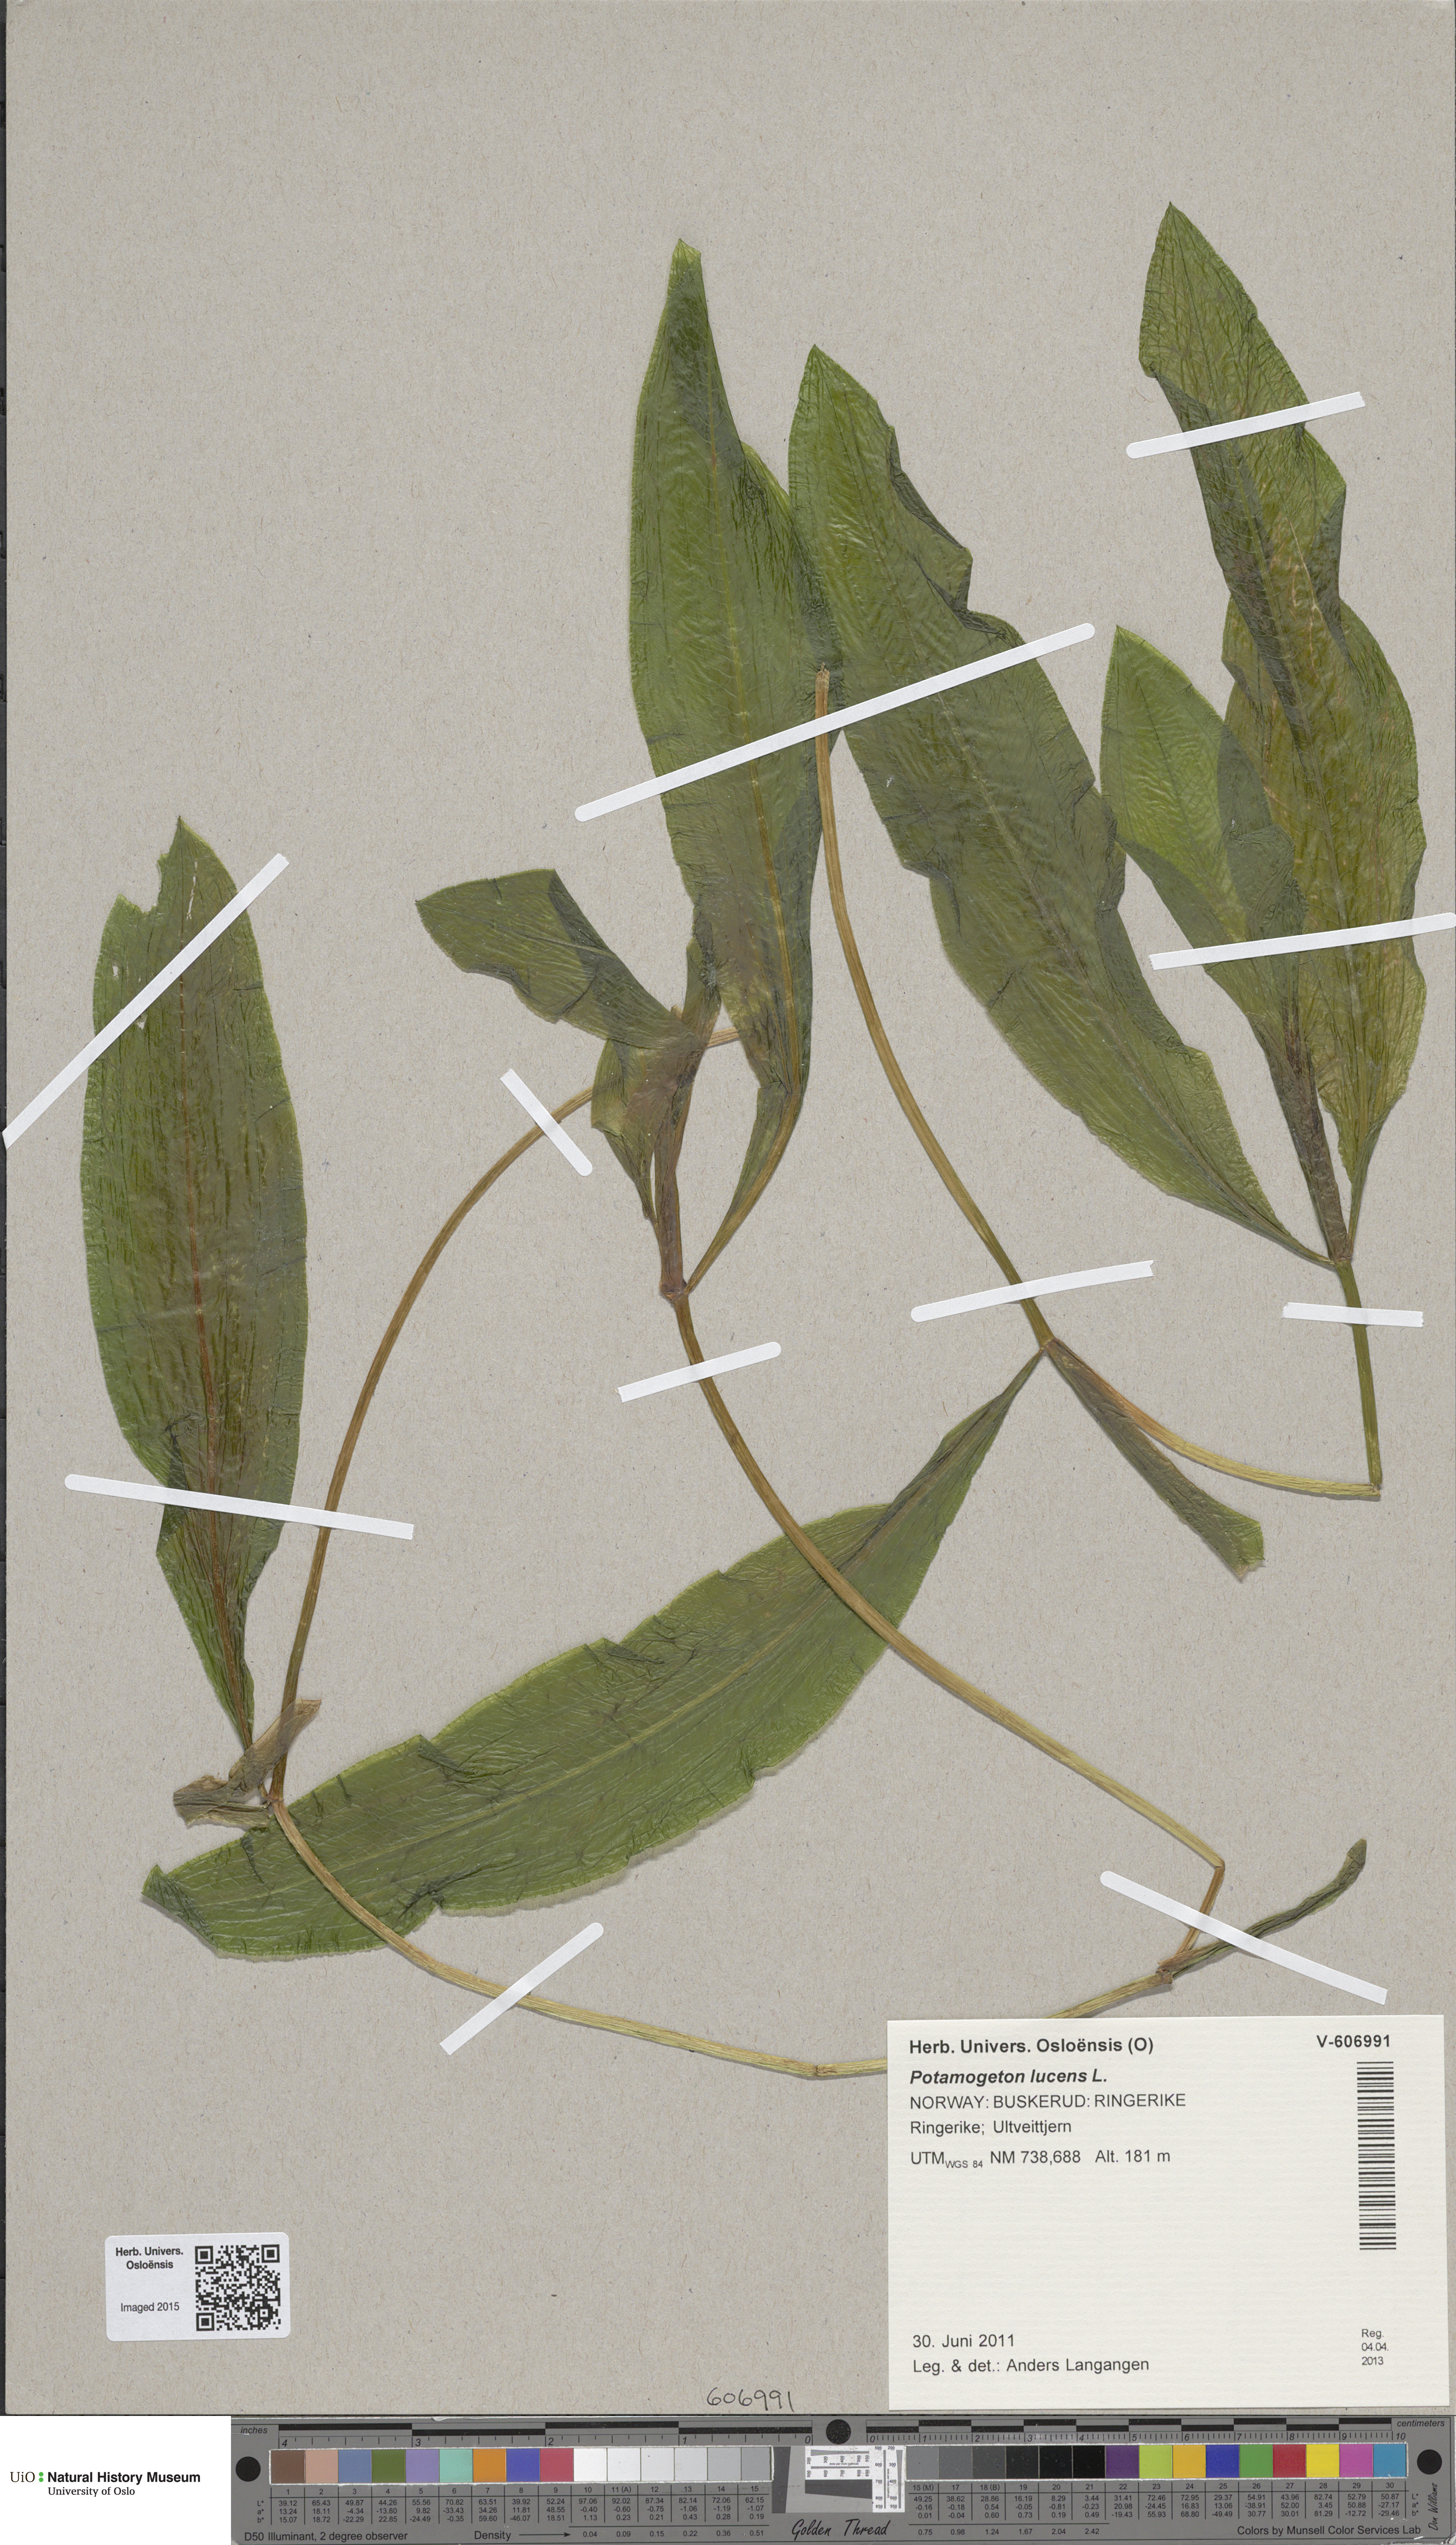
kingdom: Plantae
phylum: Tracheophyta
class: Liliopsida
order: Alismatales
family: Potamogetonaceae
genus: Potamogeton
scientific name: Potamogeton lucens
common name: Shining pondweed
